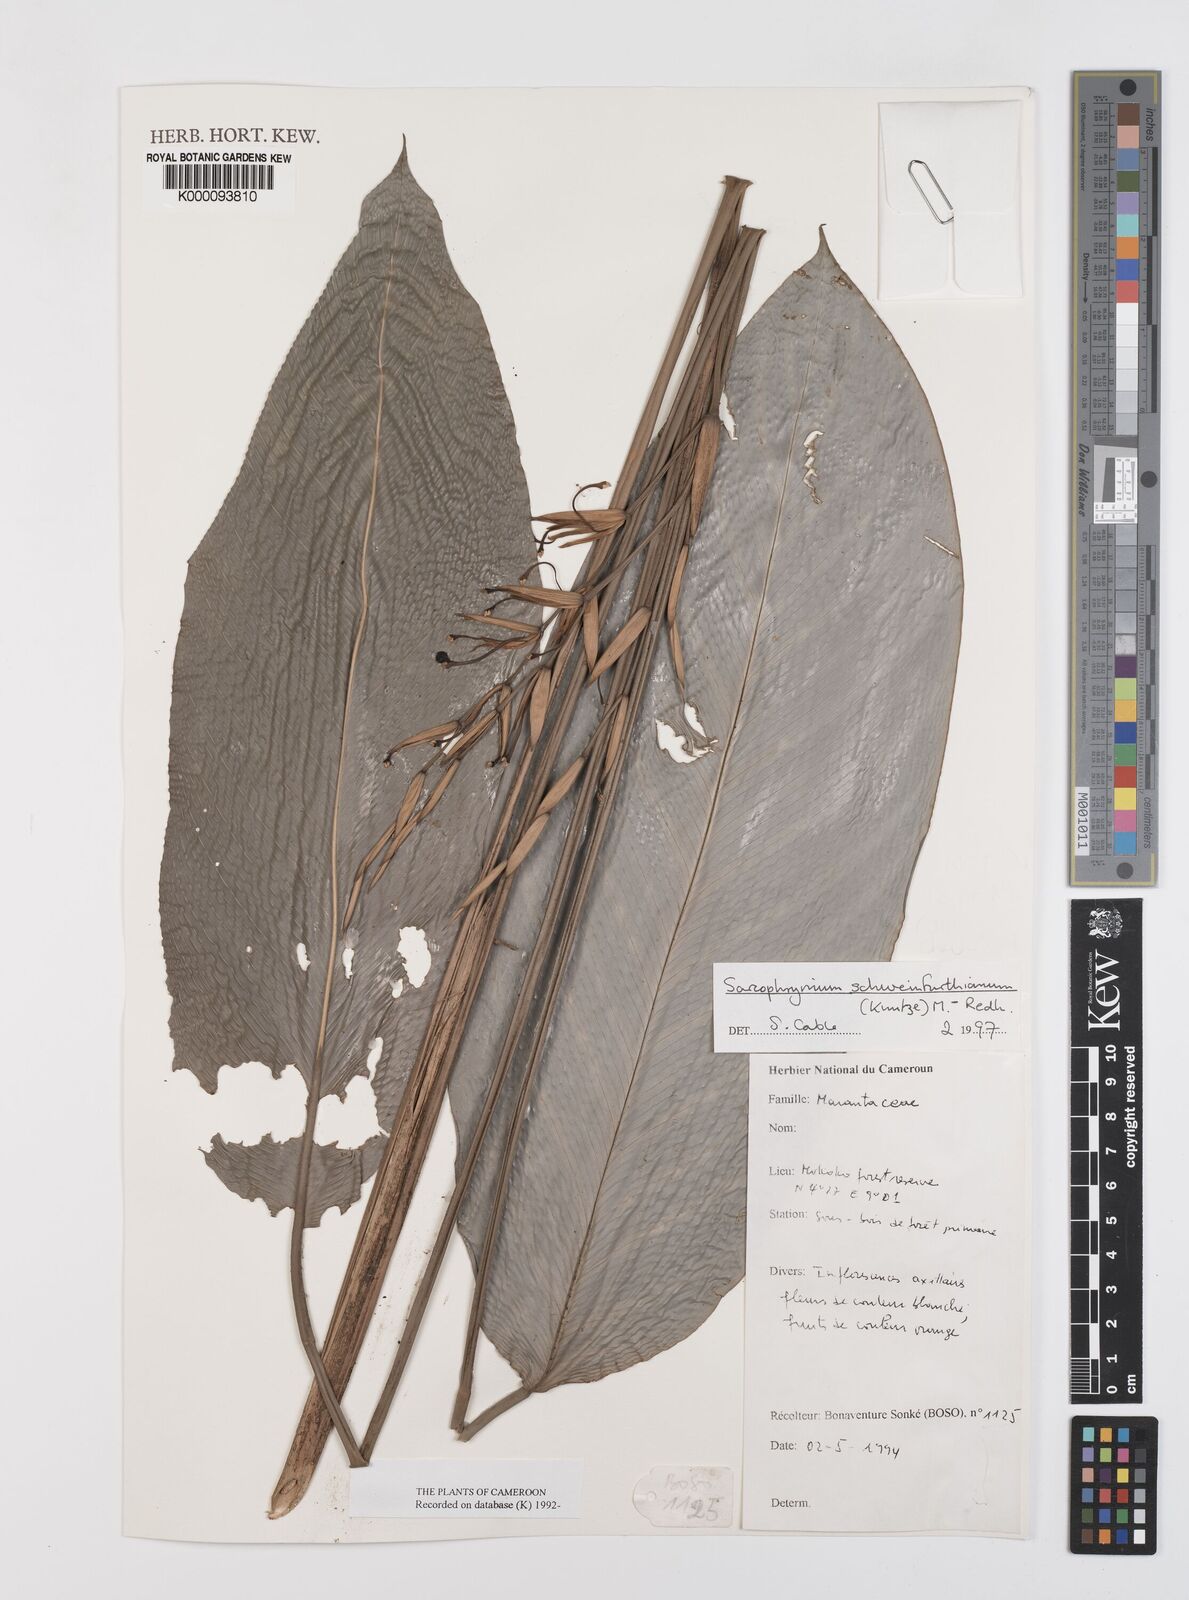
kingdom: Plantae
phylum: Tracheophyta
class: Liliopsida
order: Zingiberales
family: Marantaceae
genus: Sarcophrynium
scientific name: Sarcophrynium schweinfurthianum
